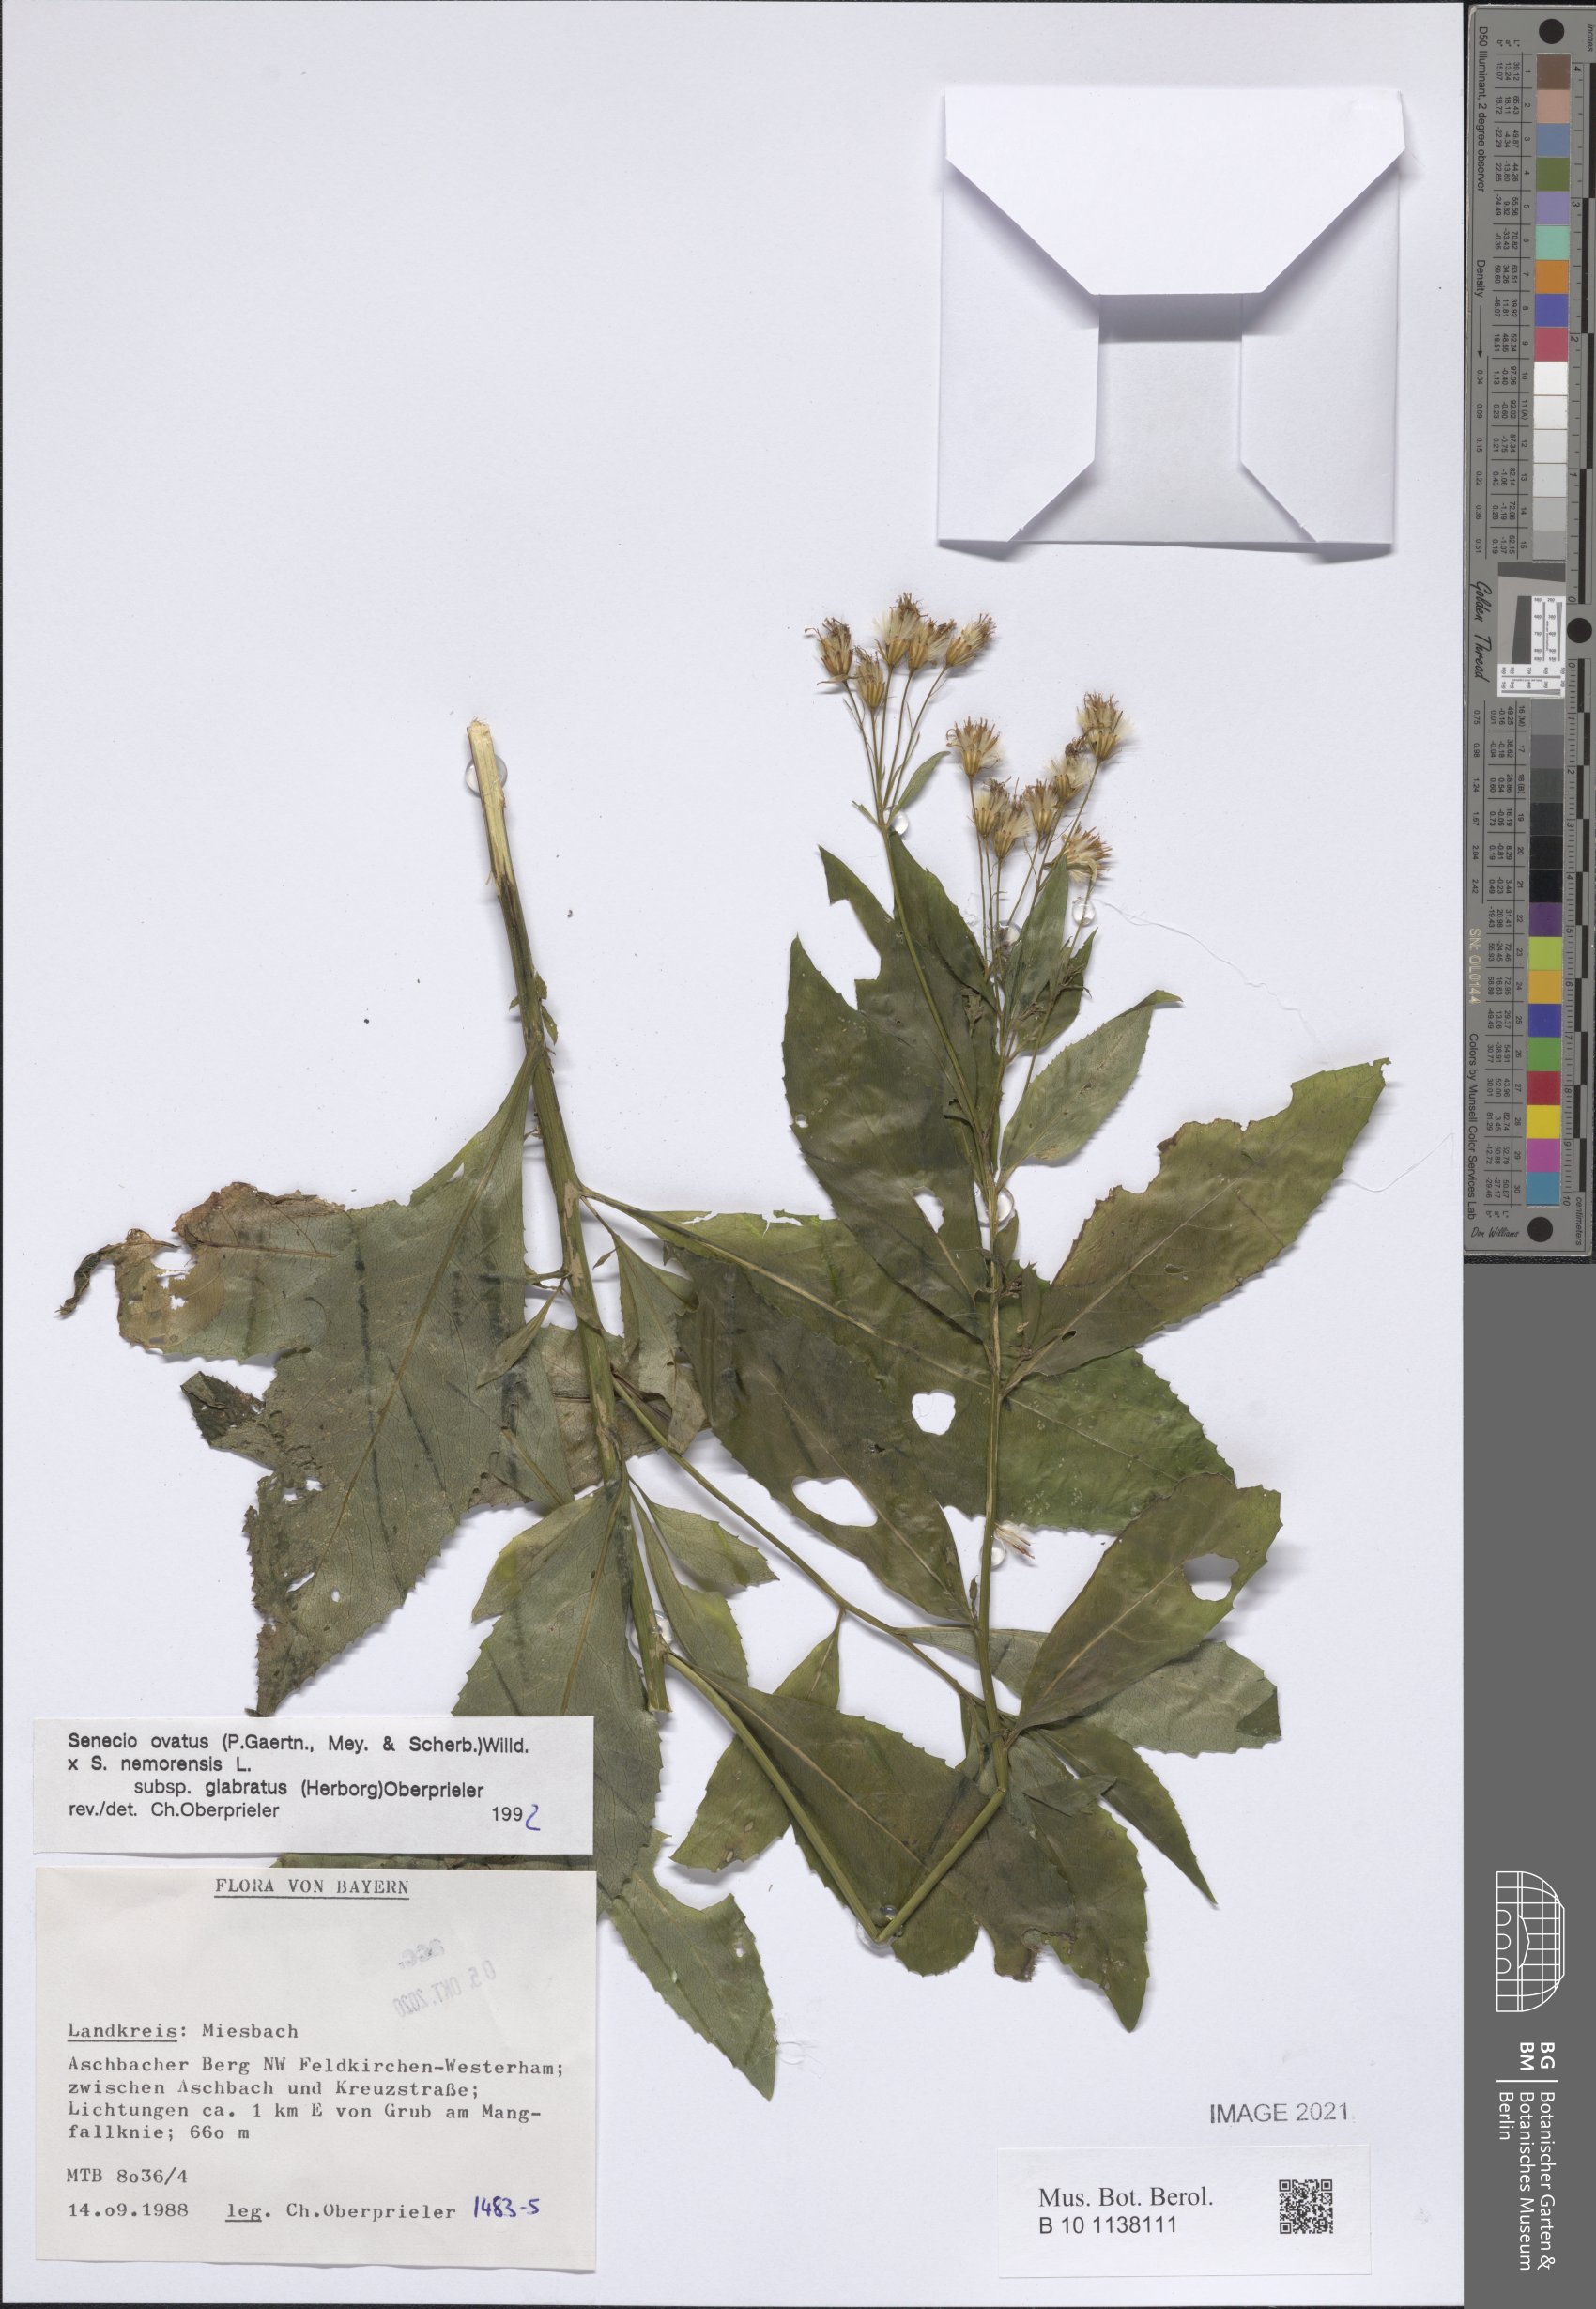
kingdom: Plantae
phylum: Tracheophyta
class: Magnoliopsida
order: Asterales
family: Asteraceae
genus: Senecio
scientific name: Senecio ovatus
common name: Wood ragwort
